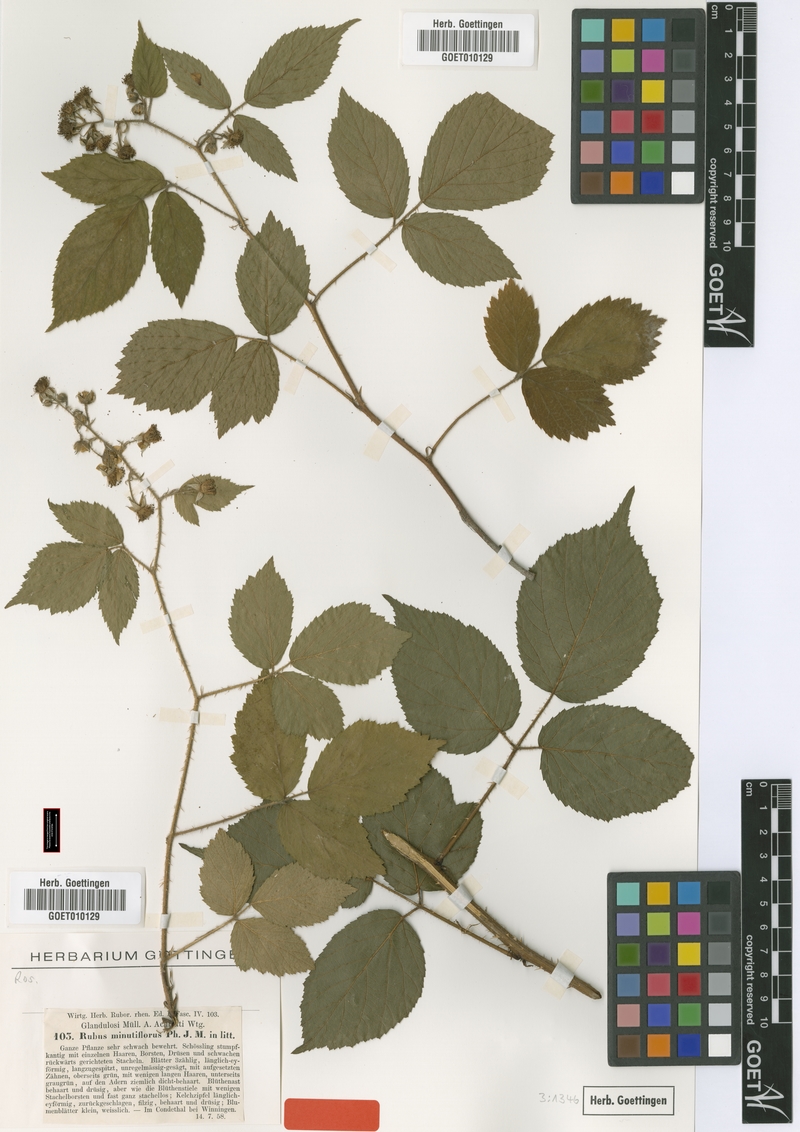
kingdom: Plantae
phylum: Tracheophyta
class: Magnoliopsida
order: Rosales
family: Rosaceae
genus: Rubus
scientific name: Rubus hirtus
